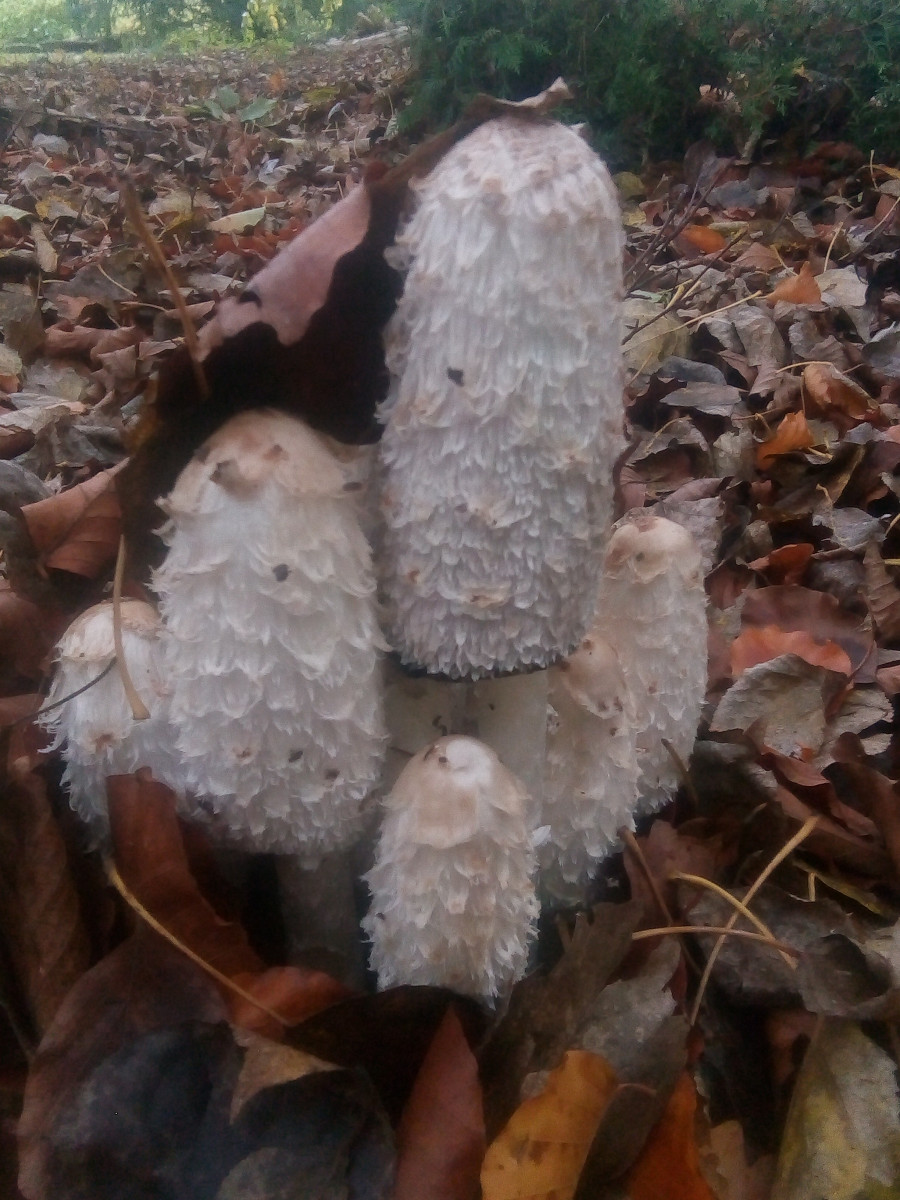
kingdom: Fungi
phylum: Basidiomycota
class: Agaricomycetes
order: Agaricales
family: Agaricaceae
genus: Coprinus
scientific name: Coprinus comatus
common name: stor parykhat
